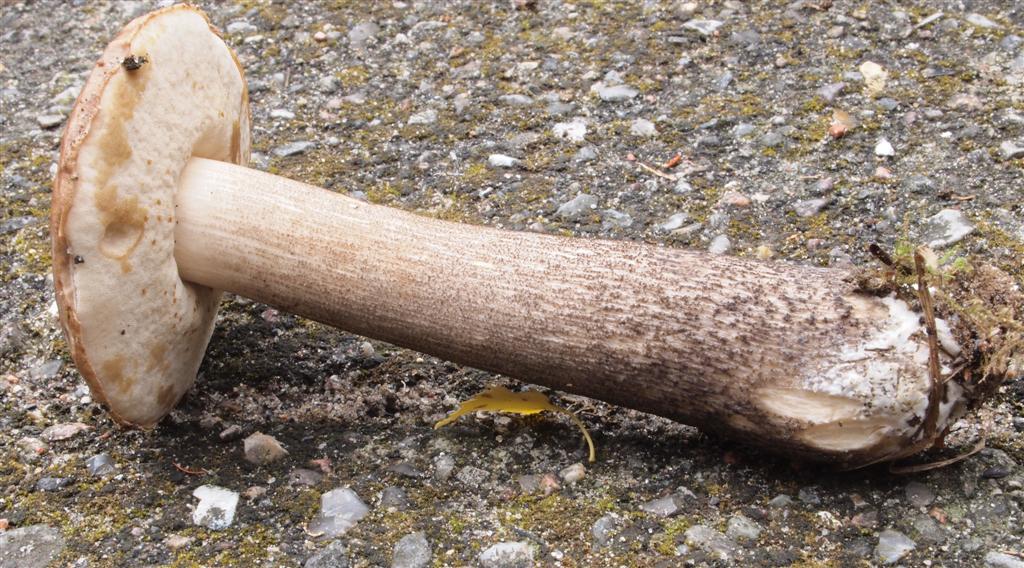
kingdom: Fungi
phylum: Basidiomycota
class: Agaricomycetes
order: Boletales
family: Boletaceae
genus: Leccinum
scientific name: Leccinum scabrum
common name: brun skælrørhat
